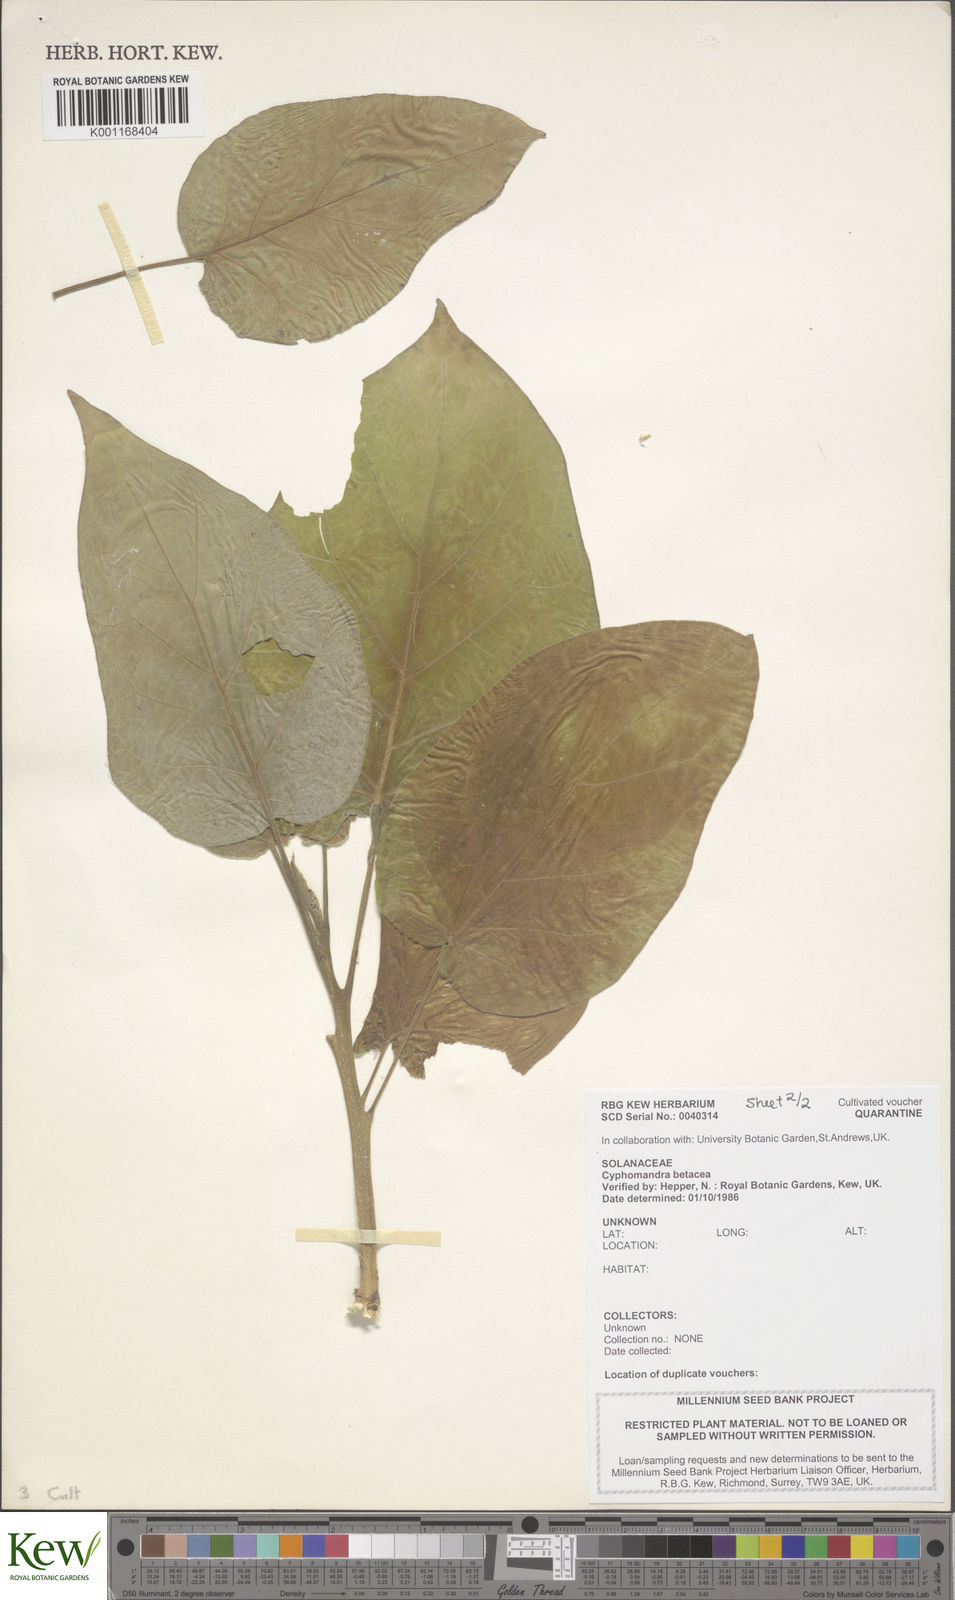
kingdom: Plantae
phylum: Tracheophyta
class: Magnoliopsida
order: Solanales
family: Solanaceae
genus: Solanum
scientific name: Solanum betaceum
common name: Tamarillo
